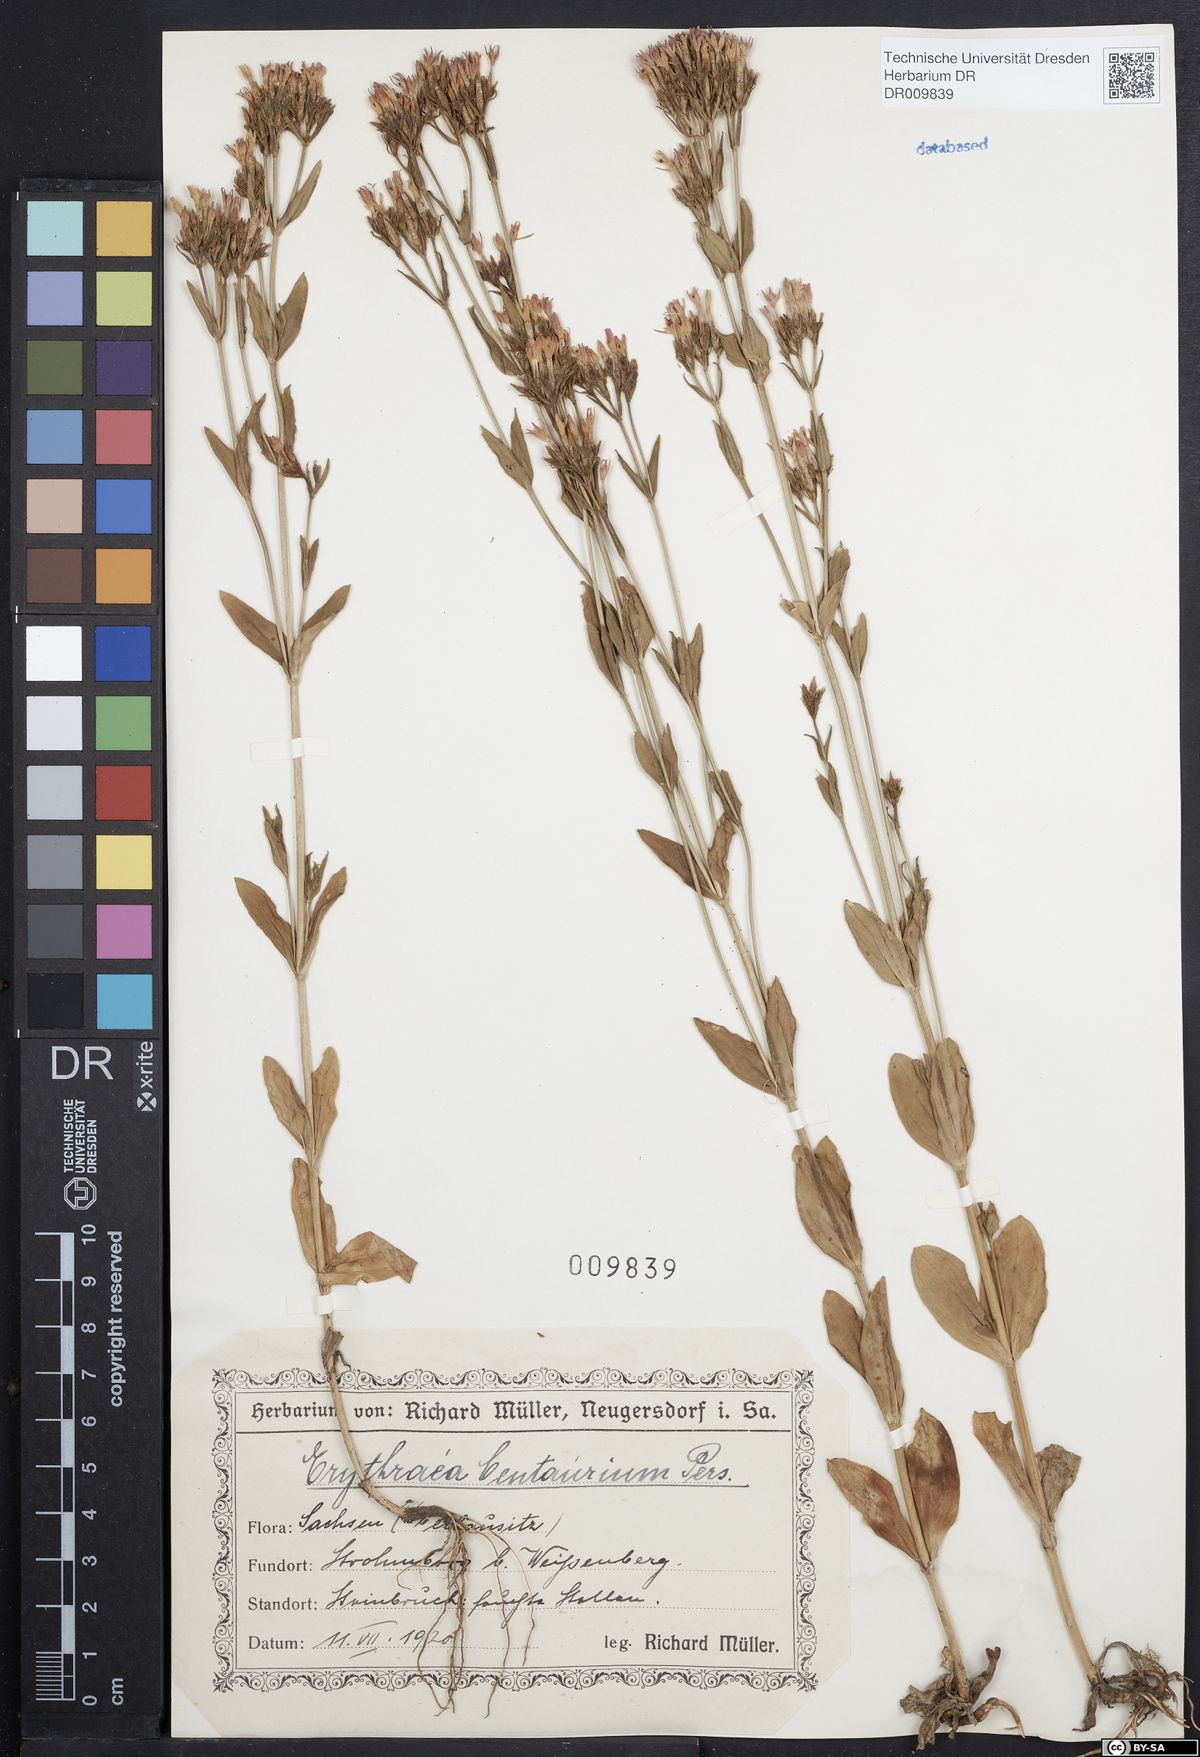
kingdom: Plantae
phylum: Tracheophyta
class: Magnoliopsida
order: Gentianales
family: Gentianaceae
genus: Centaurium
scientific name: Centaurium erythraea
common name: Common centaury
